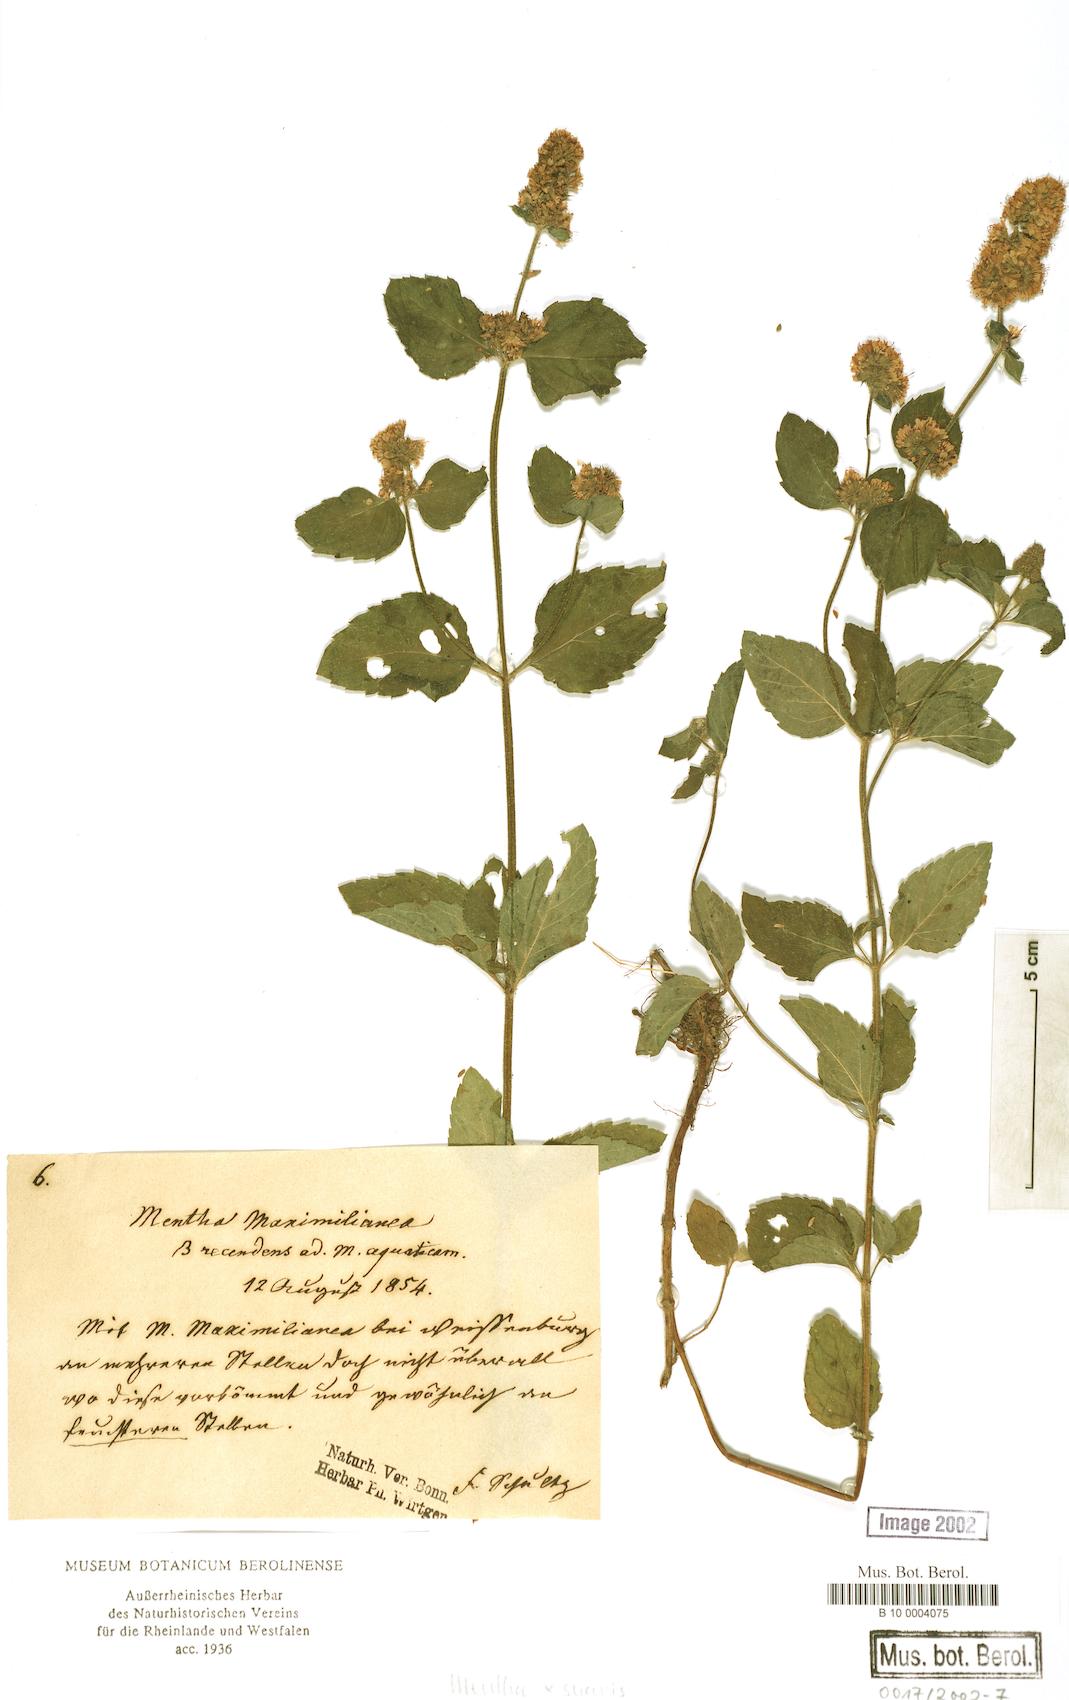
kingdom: Plantae
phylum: Tracheophyta
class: Magnoliopsida
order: Lamiales
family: Lamiaceae
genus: Mentha
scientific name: Mentha suavis
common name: Sweet mint
